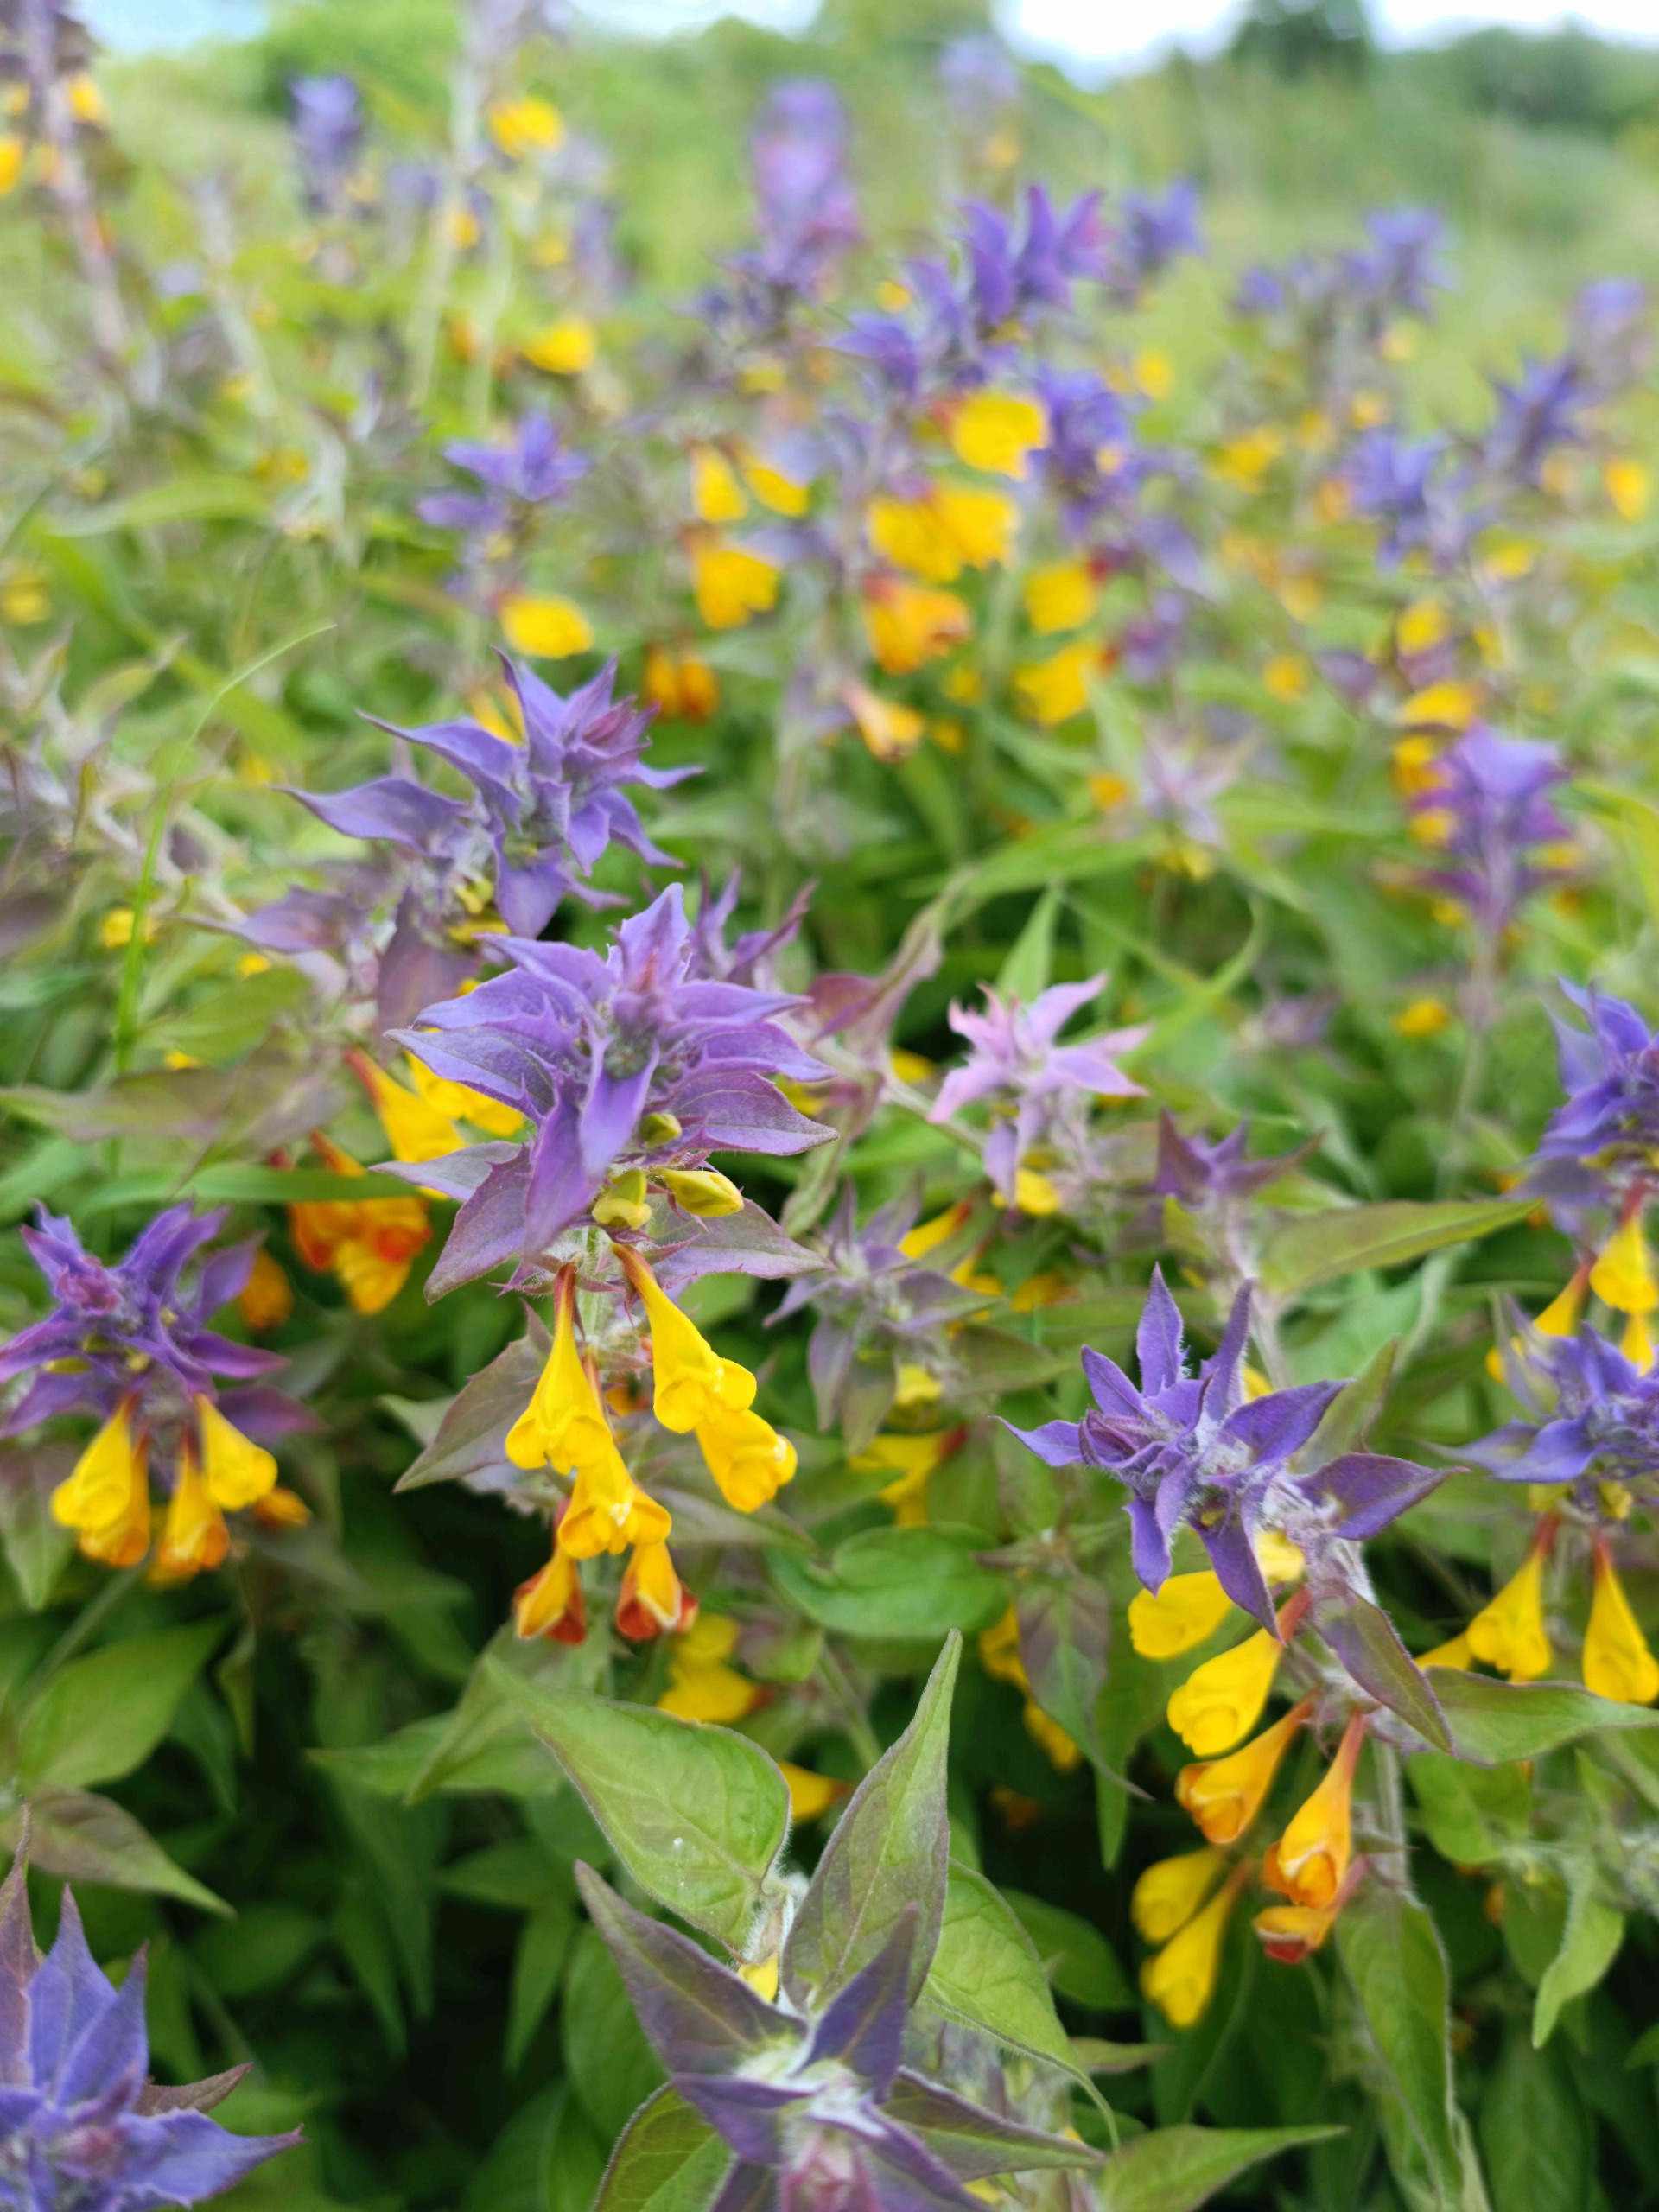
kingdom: Plantae
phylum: Tracheophyta
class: Magnoliopsida
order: Lamiales
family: Orobanchaceae
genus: Melampyrum
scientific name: Melampyrum nemorosum
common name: Blåtoppet kohvede
